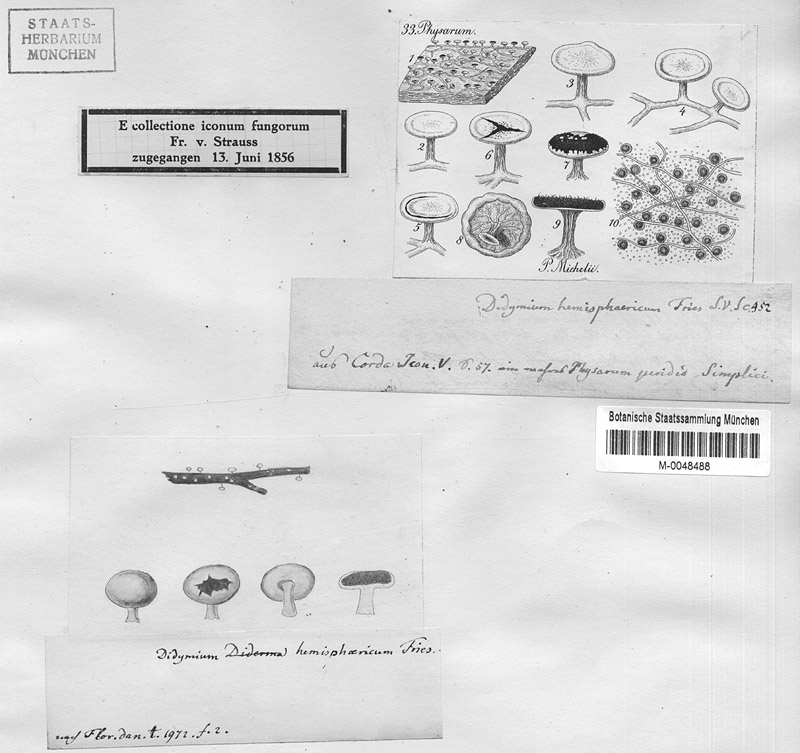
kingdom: Protozoa
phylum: Mycetozoa
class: Myxomycetes
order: Physarales
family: Didymiaceae
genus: Diderma
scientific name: Diderma hemisphaericum
